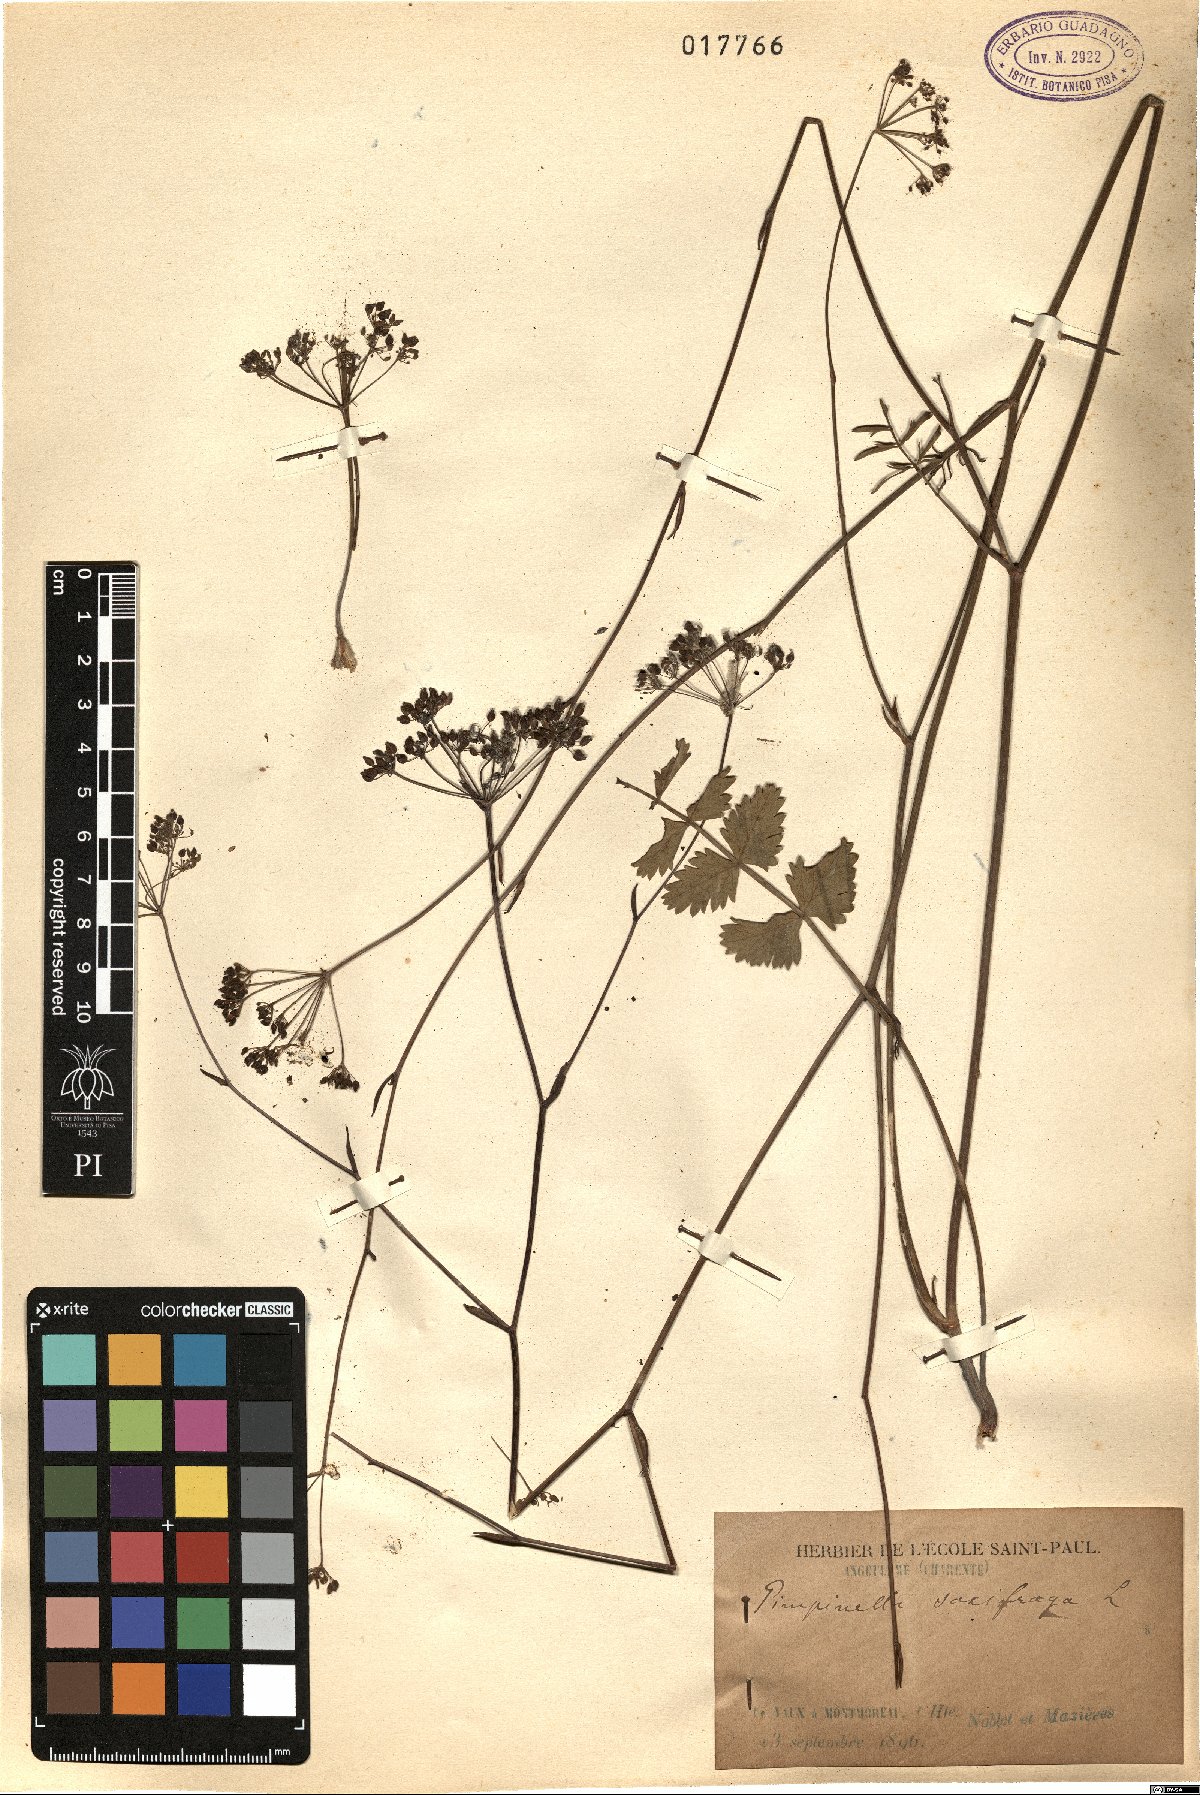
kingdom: Plantae
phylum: Tracheophyta
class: Magnoliopsida
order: Apiales
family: Apiaceae
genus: Pimpinella
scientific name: Pimpinella saxifraga
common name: Burnet-saxifrage
